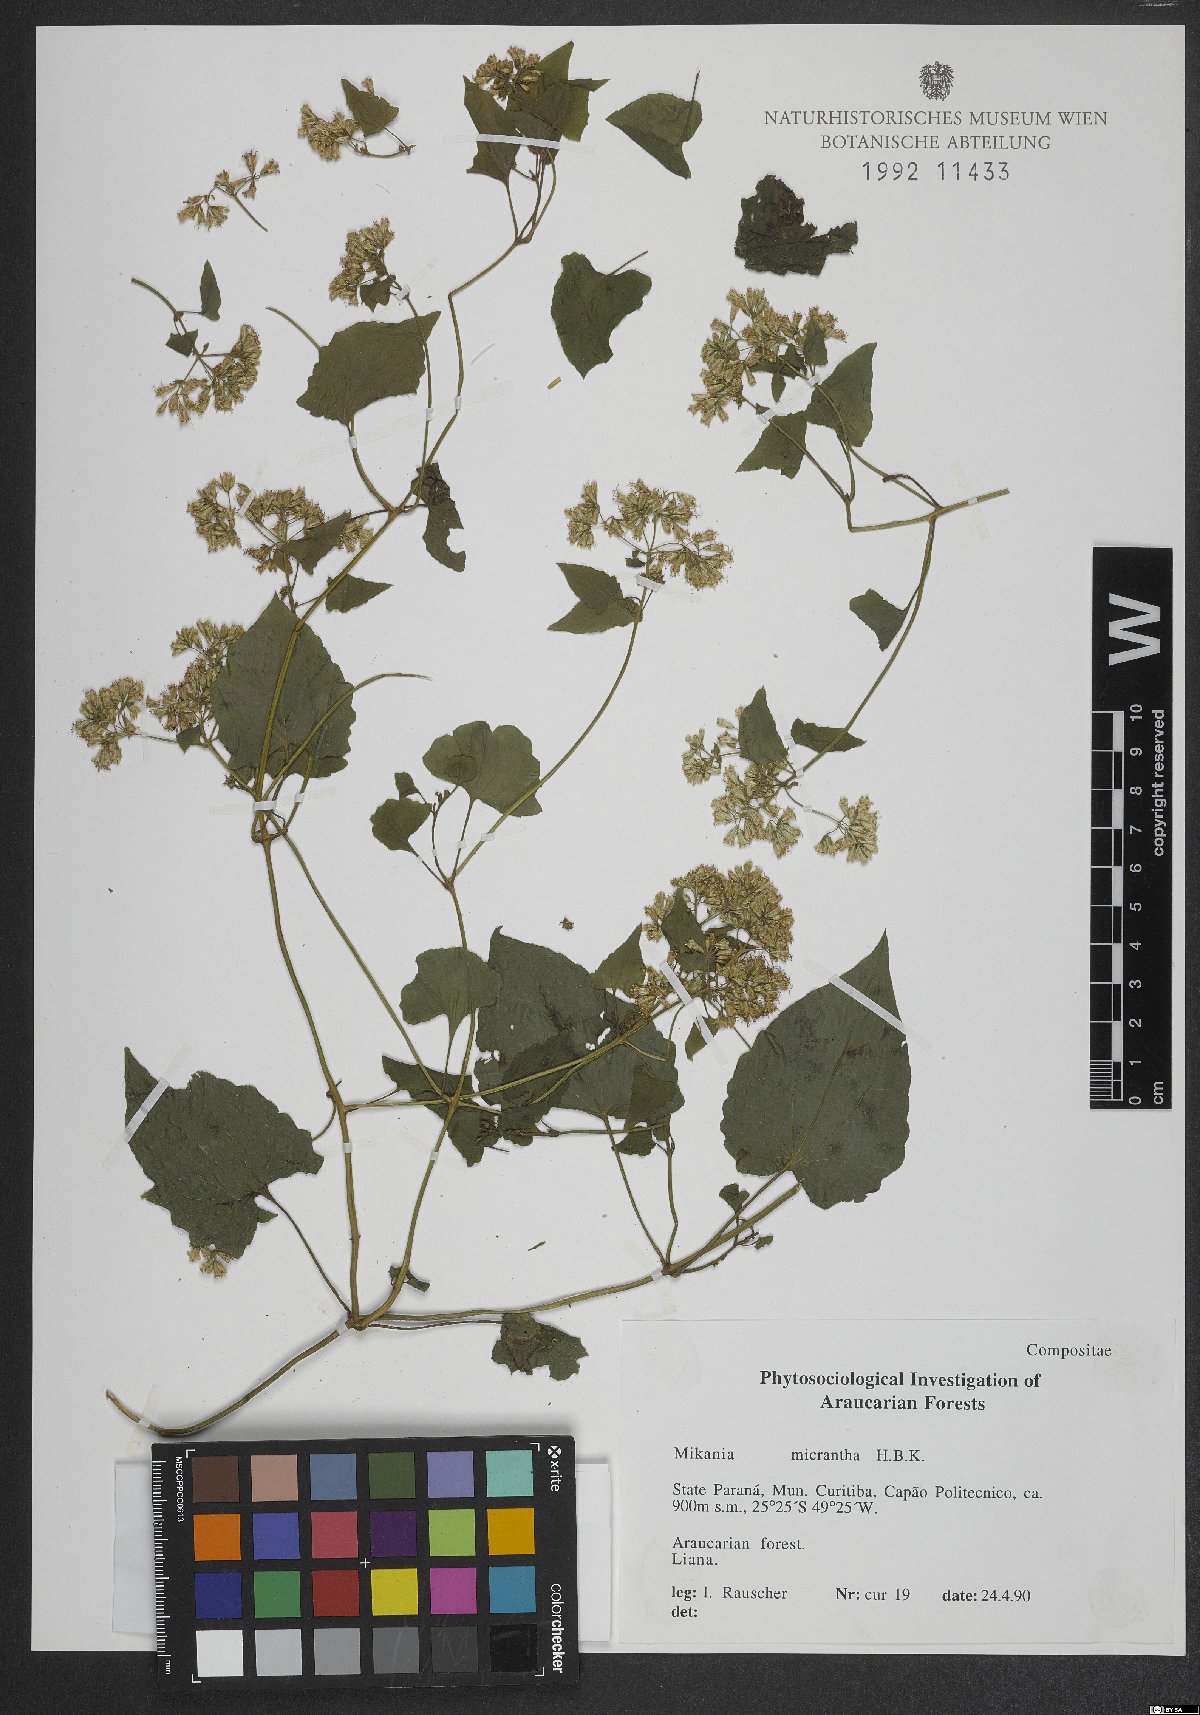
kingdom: Plantae
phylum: Tracheophyta
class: Magnoliopsida
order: Asterales
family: Asteraceae
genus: Mikania
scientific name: Mikania micrantha
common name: Mile-a-minute
